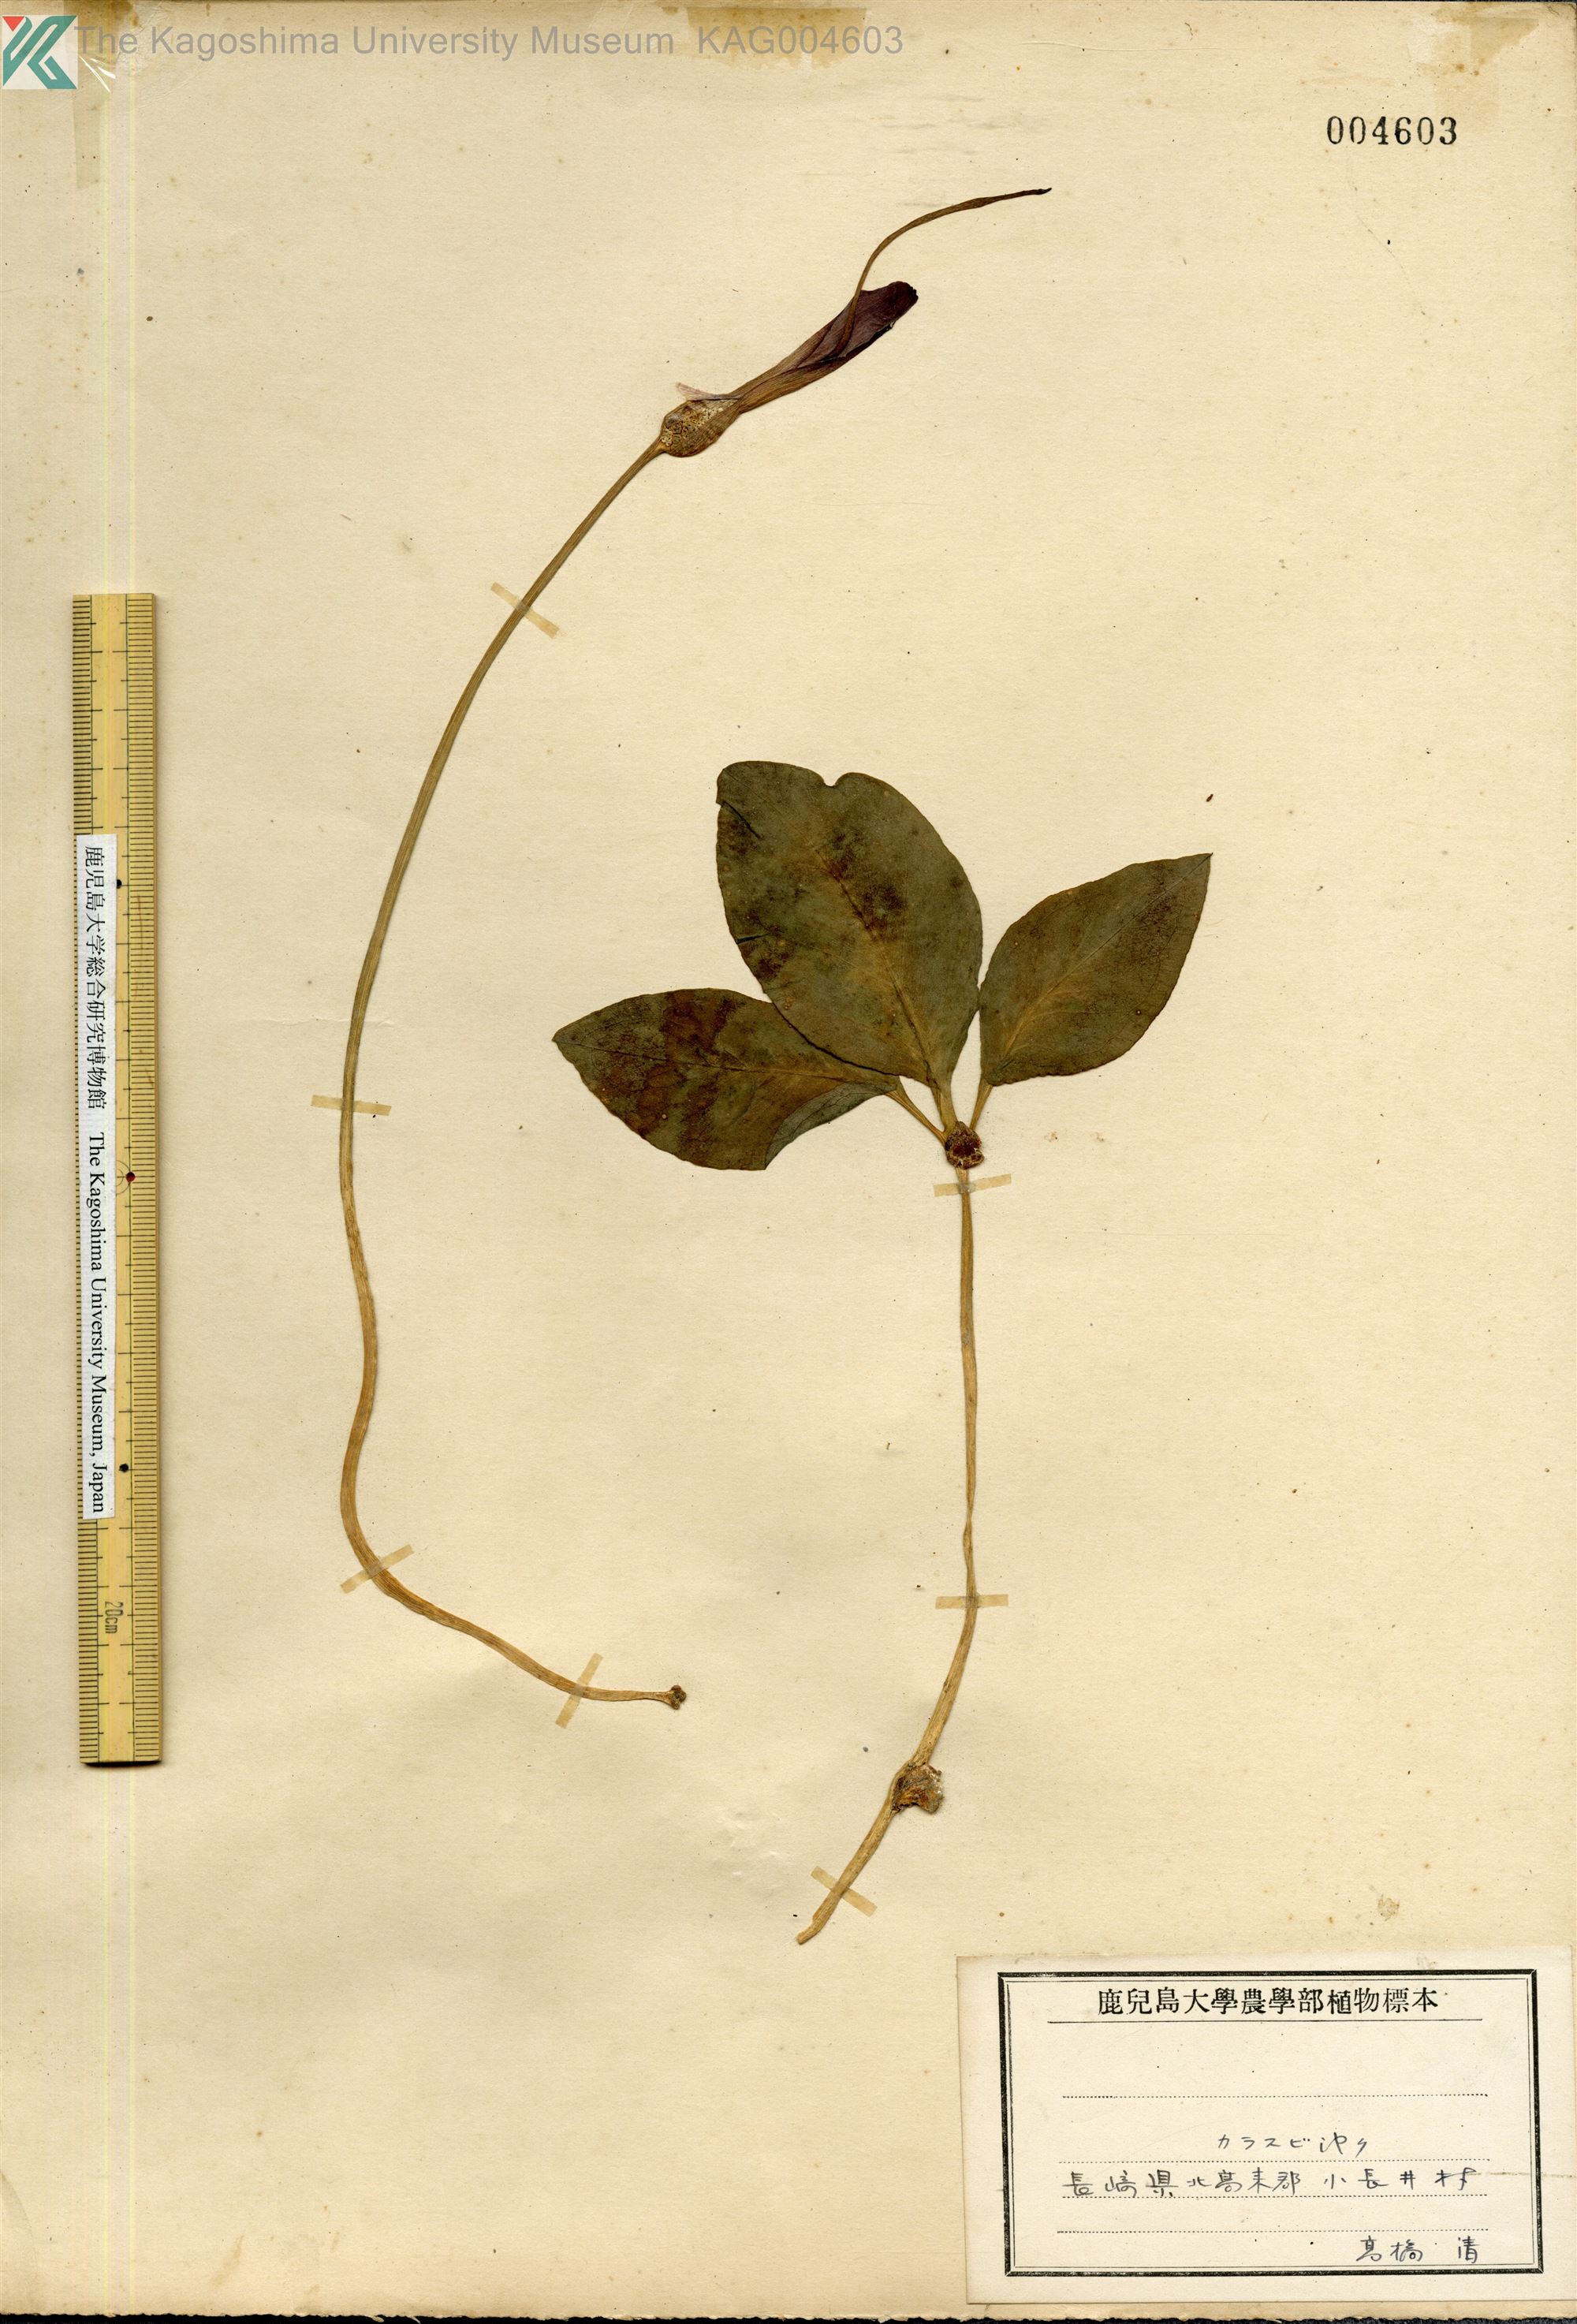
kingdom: Plantae
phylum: Tracheophyta
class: Liliopsida
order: Alismatales
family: Araceae
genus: Pinellia
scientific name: Pinellia ternata
